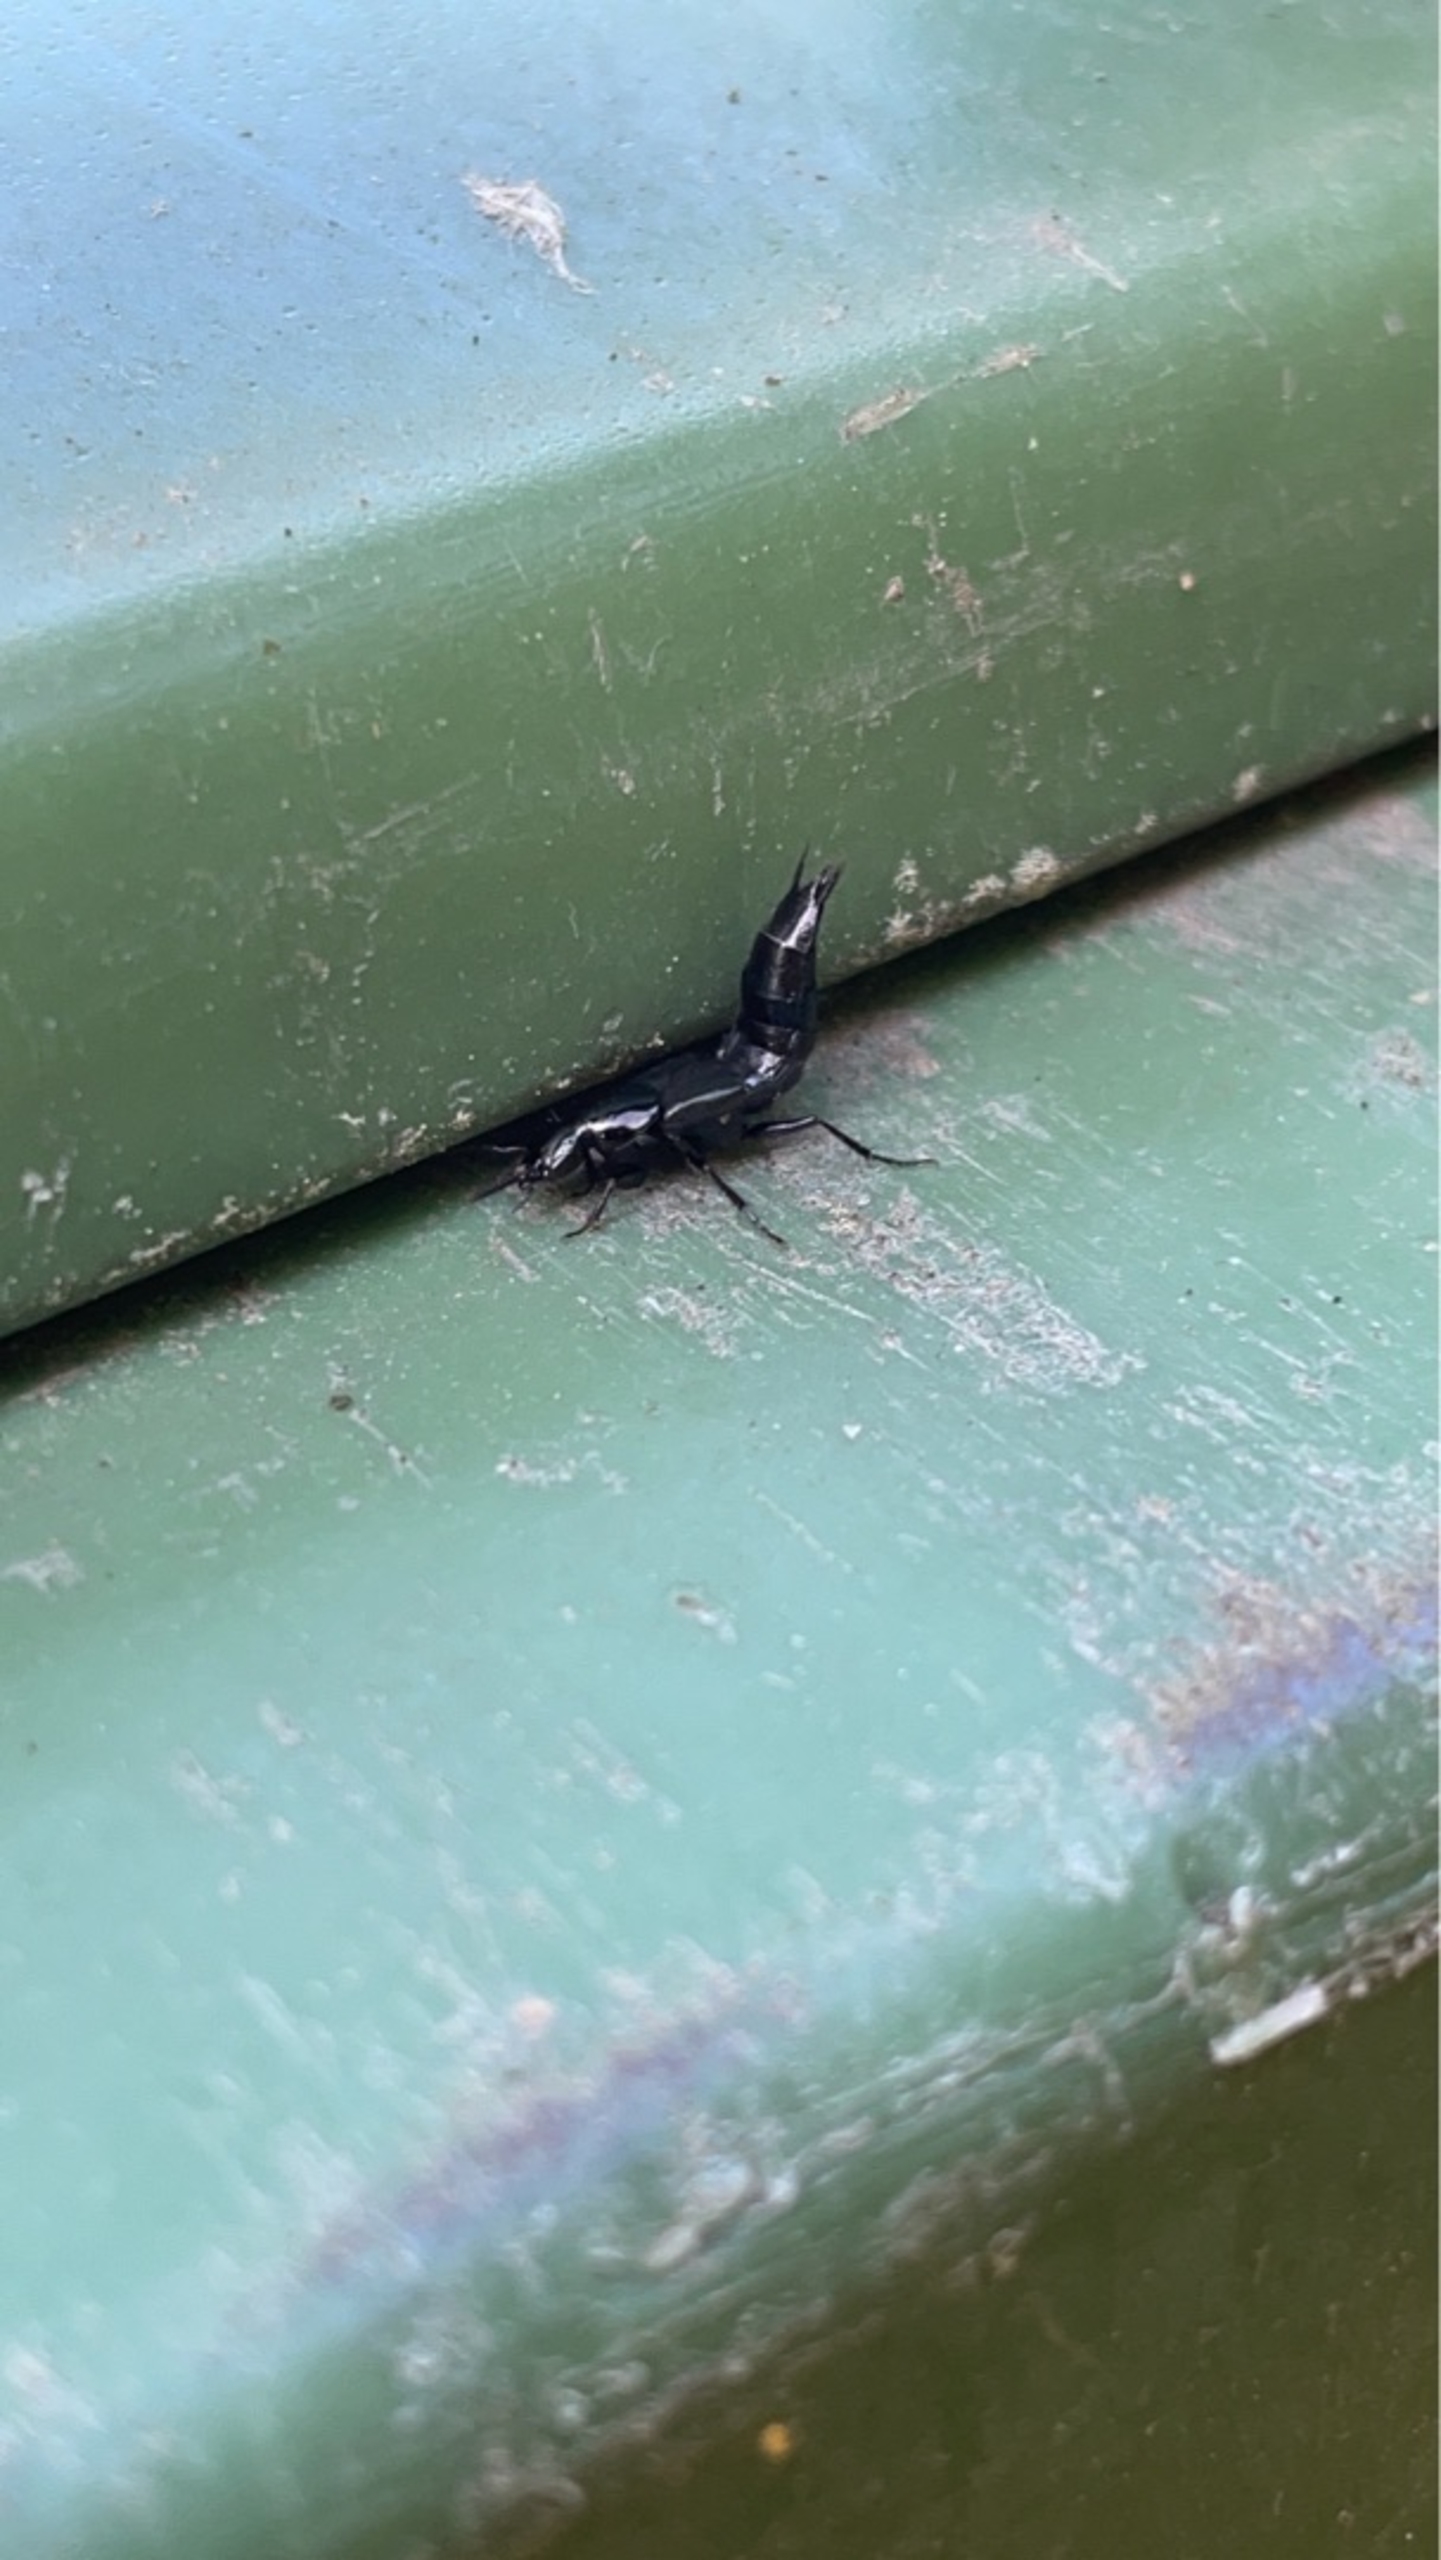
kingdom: Animalia
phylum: Arthropoda
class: Insecta
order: Coleoptera
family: Staphylinidae
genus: Philonthus
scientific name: Philonthus
